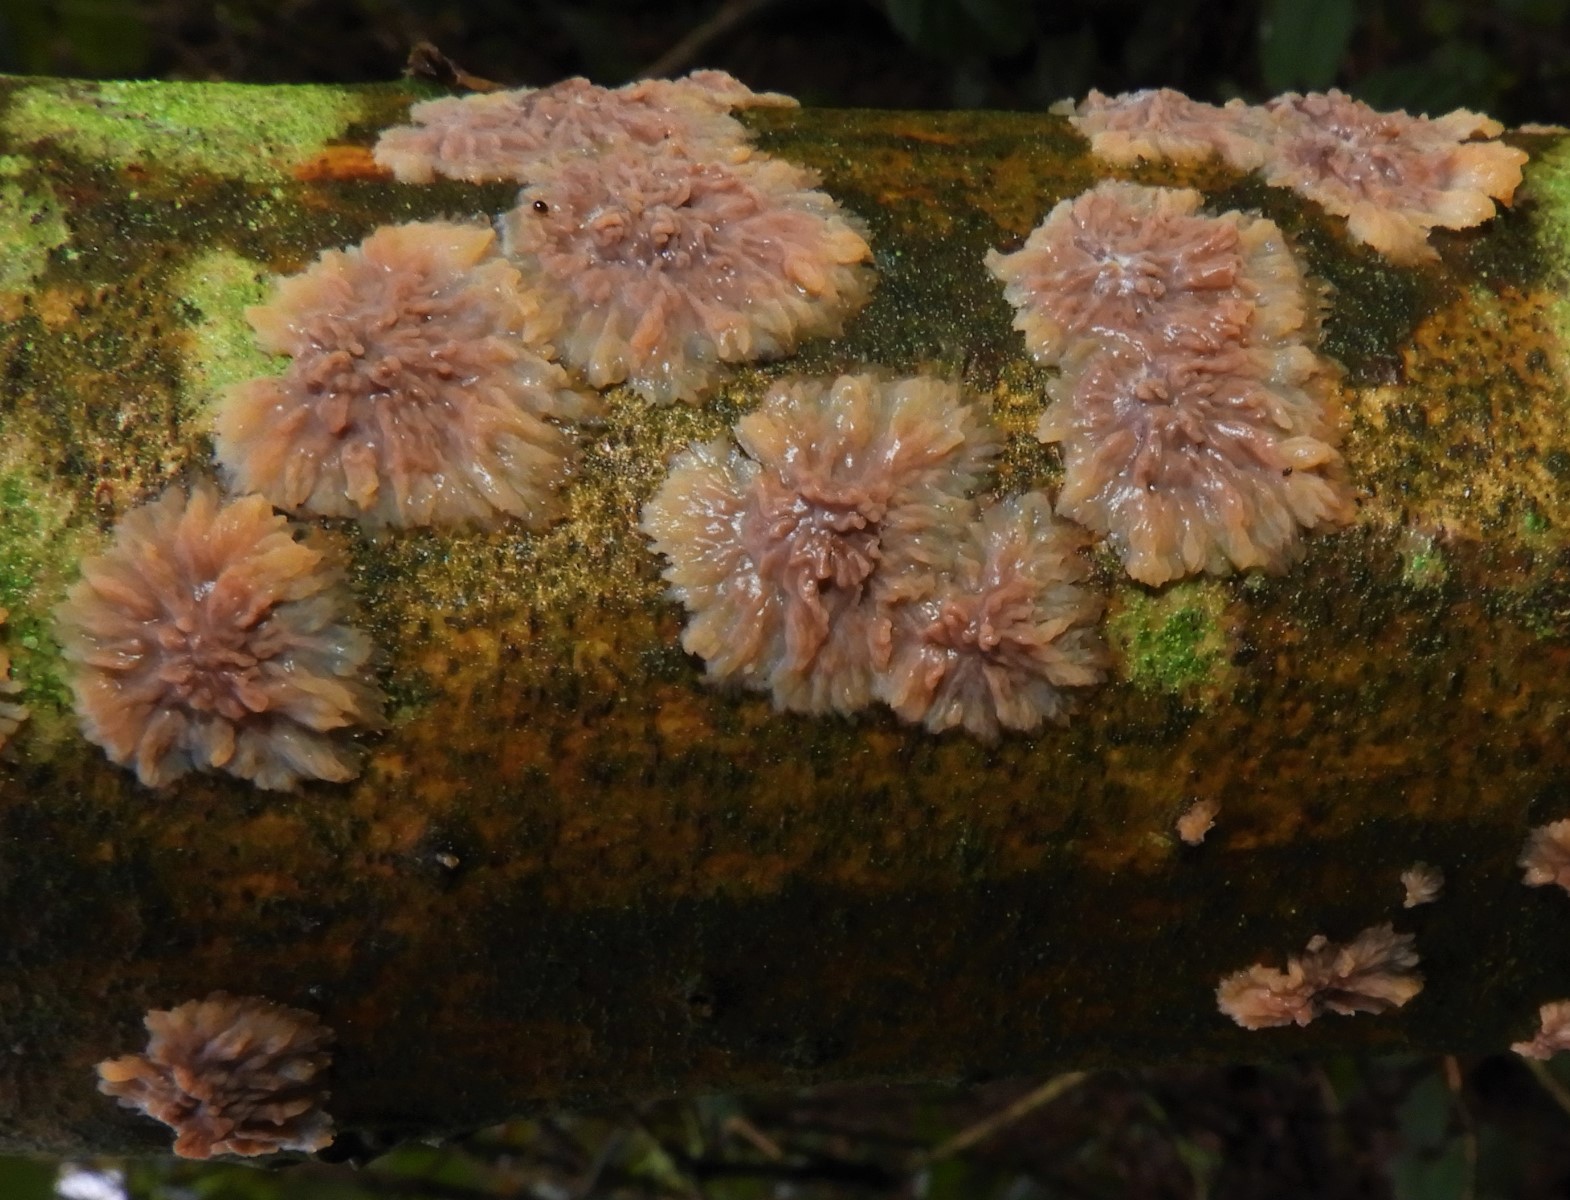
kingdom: Fungi
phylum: Basidiomycota
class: Agaricomycetes
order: Polyporales
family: Meruliaceae
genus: Phlebia
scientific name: Phlebia radiata
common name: stråle-åresvamp
